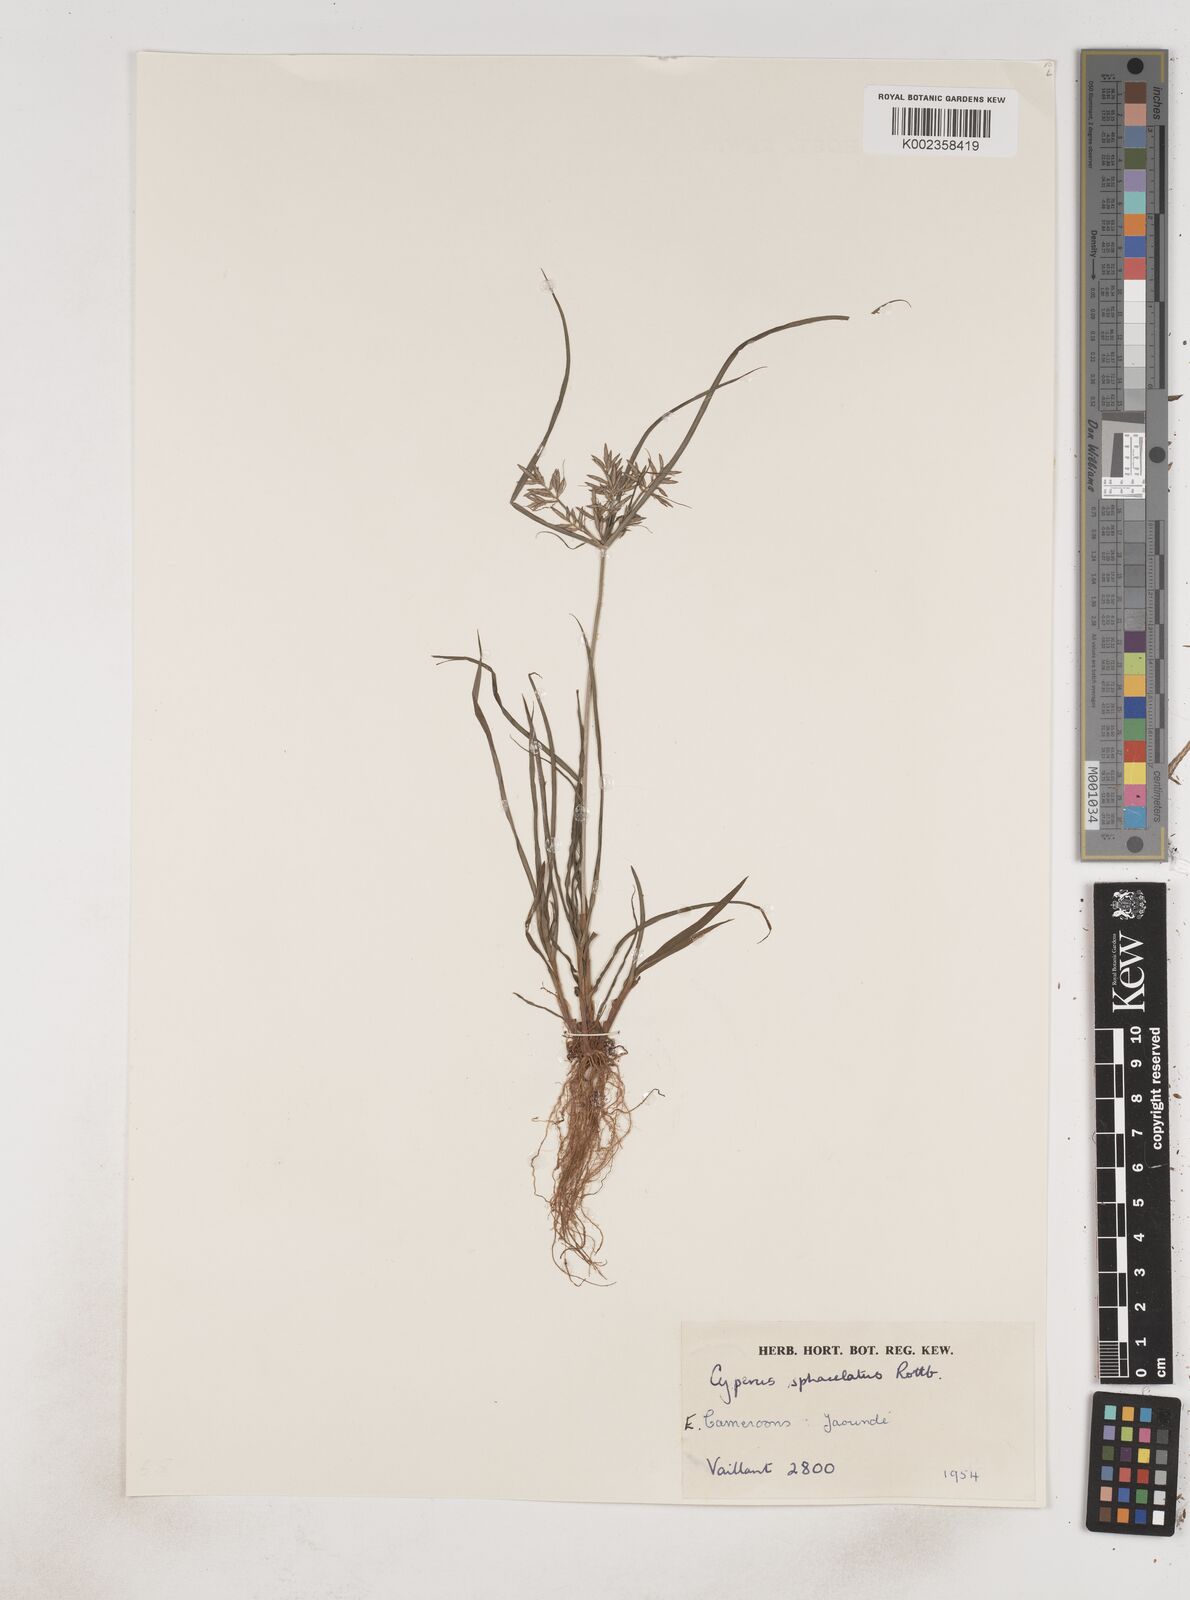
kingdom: Plantae
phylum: Tracheophyta
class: Liliopsida
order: Poales
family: Cyperaceae
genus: Cyperus
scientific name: Cyperus sphacelatus
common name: Roadside flatsedge
